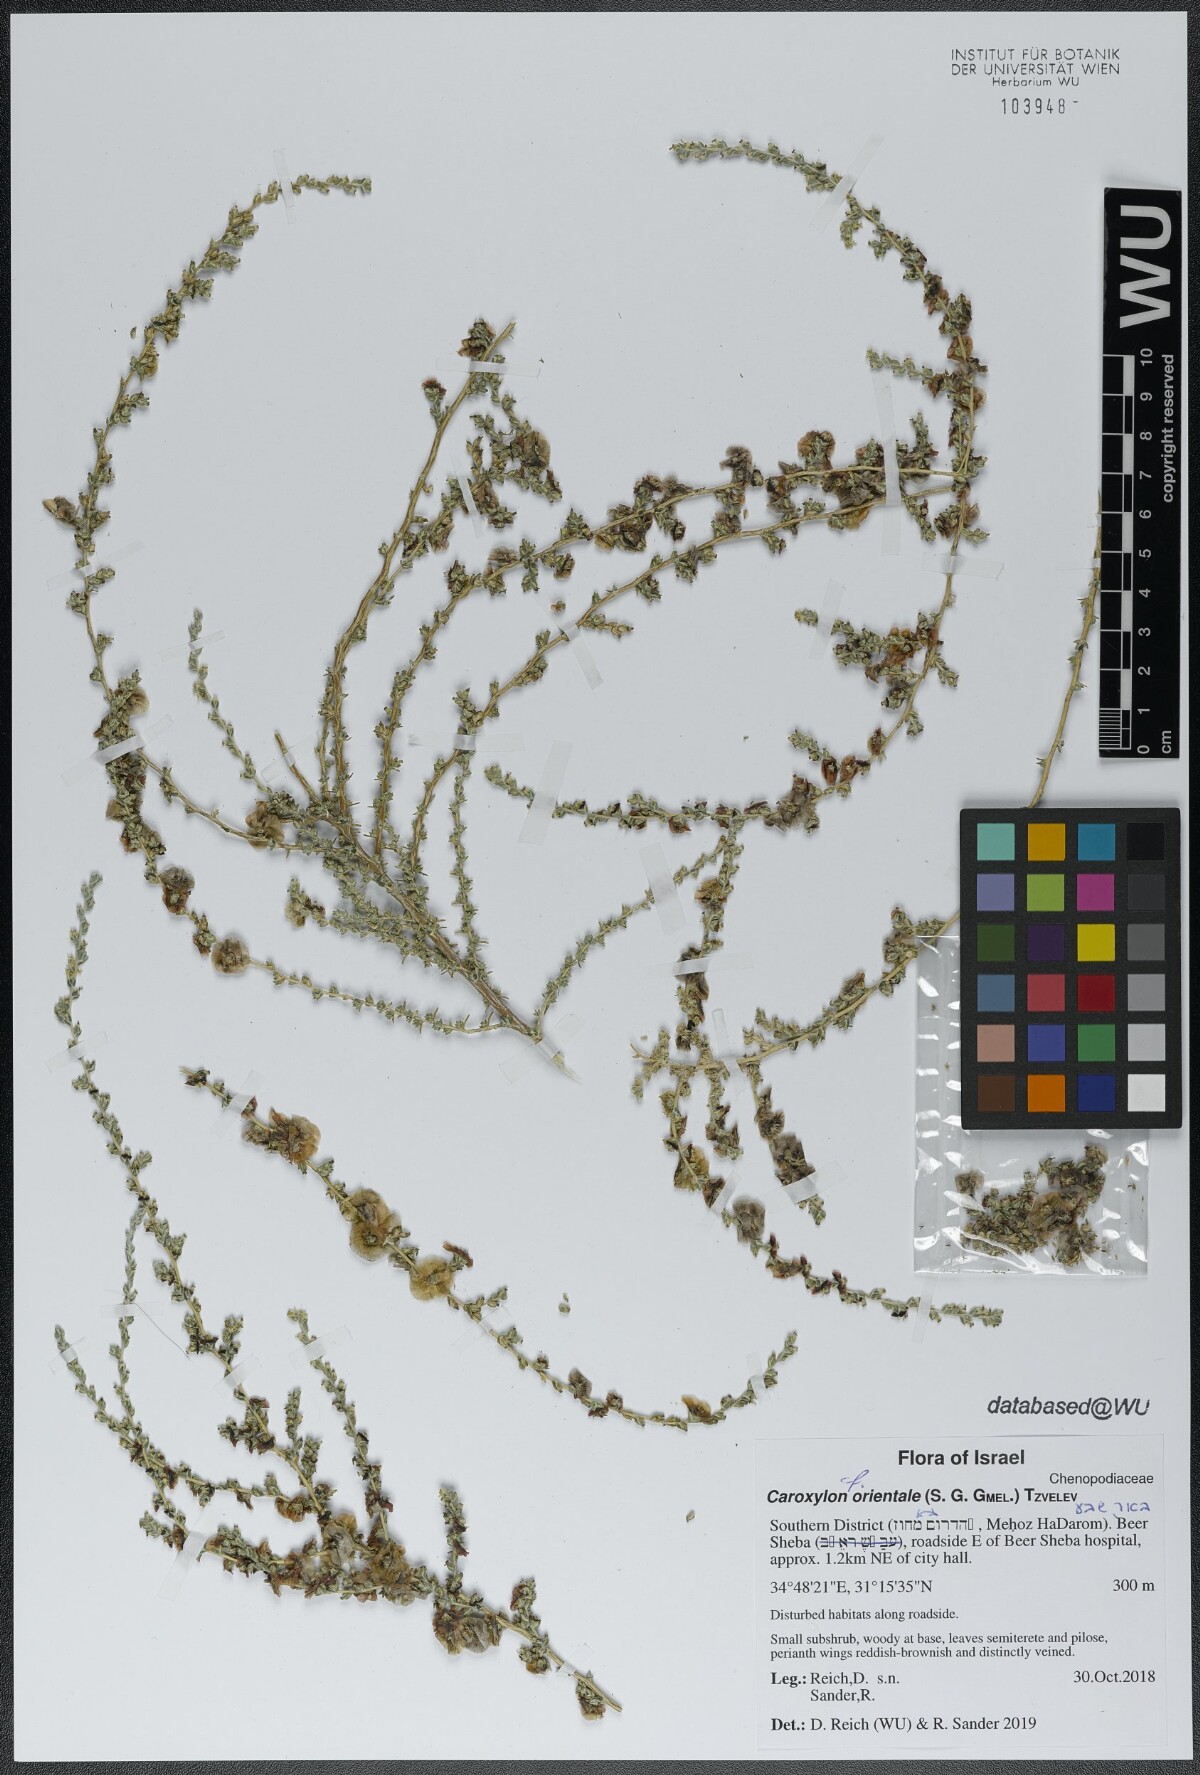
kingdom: Plantae
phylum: Tracheophyta
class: Magnoliopsida
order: Caryophyllales
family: Amaranthaceae
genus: Nitrosalsola
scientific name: Nitrosalsola orientalis
